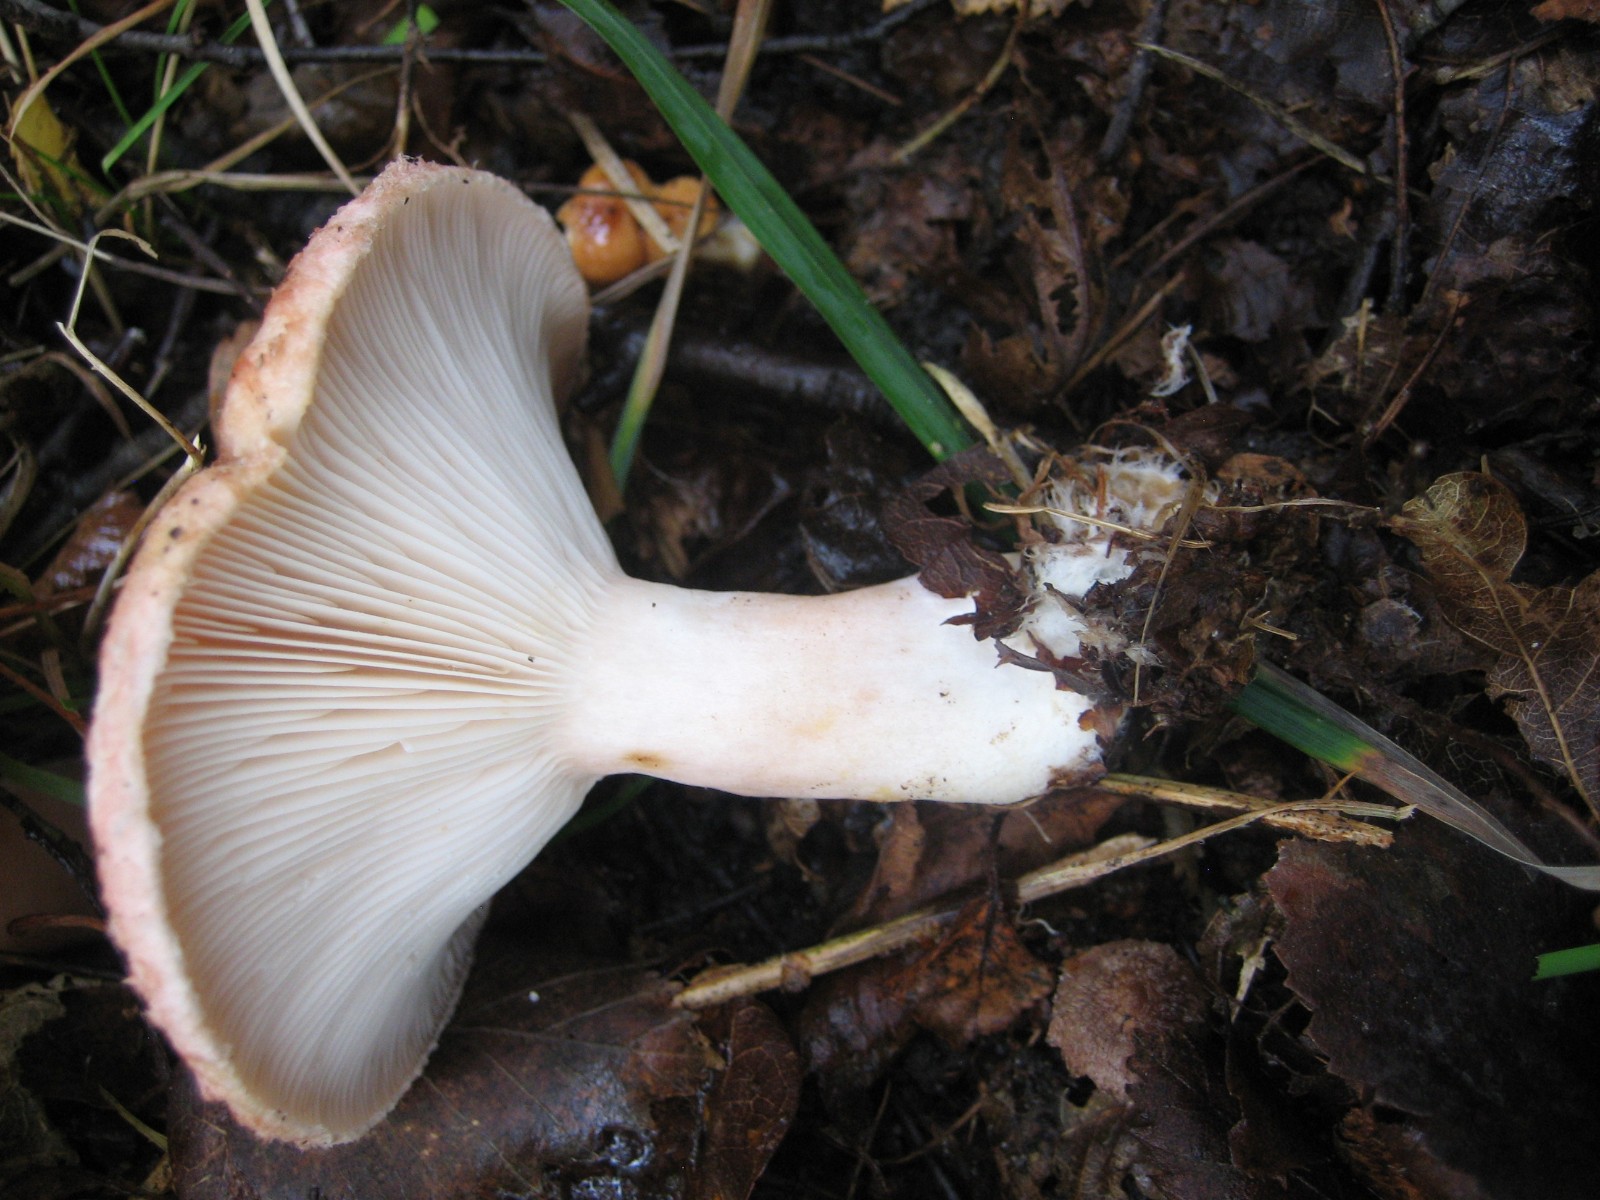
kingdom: Fungi
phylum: Basidiomycota
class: Agaricomycetes
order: Russulales
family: Russulaceae
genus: Lactarius
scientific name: Lactarius torminosus
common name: skægget mælkehat
